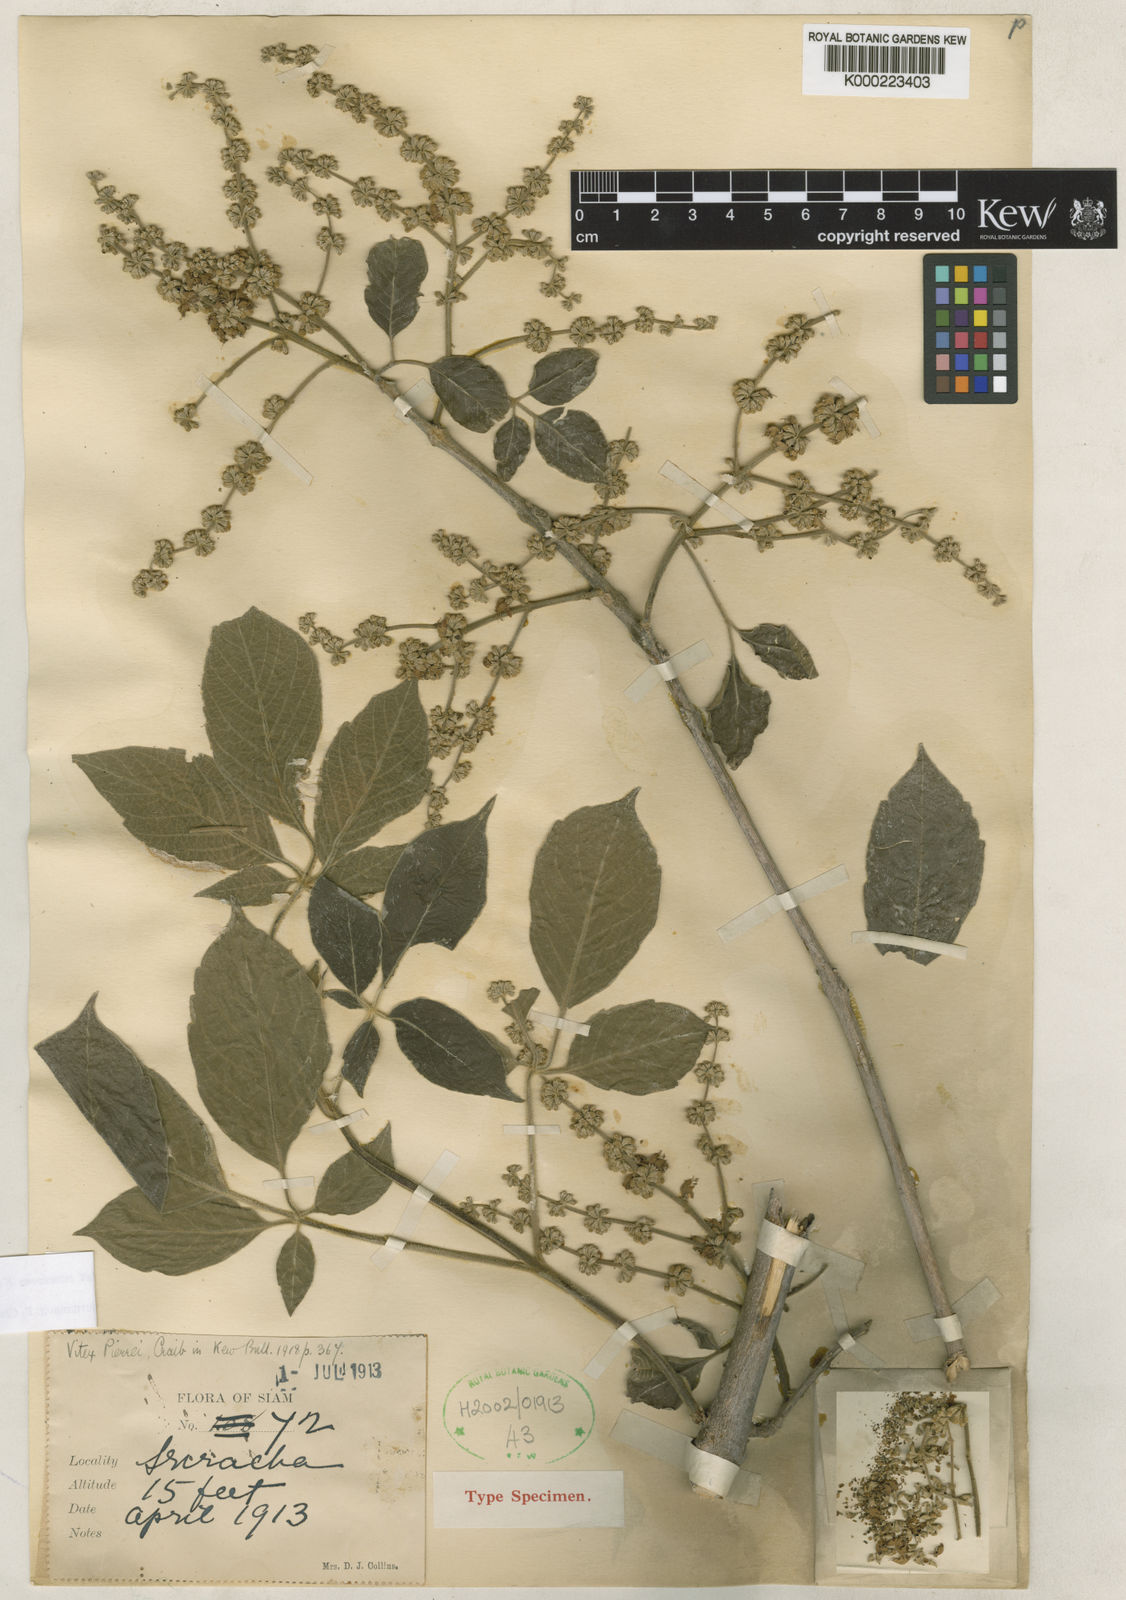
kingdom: Plantae
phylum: Tracheophyta
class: Magnoliopsida
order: Lamiales
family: Lamiaceae
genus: Vitex
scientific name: Vitex canescens
